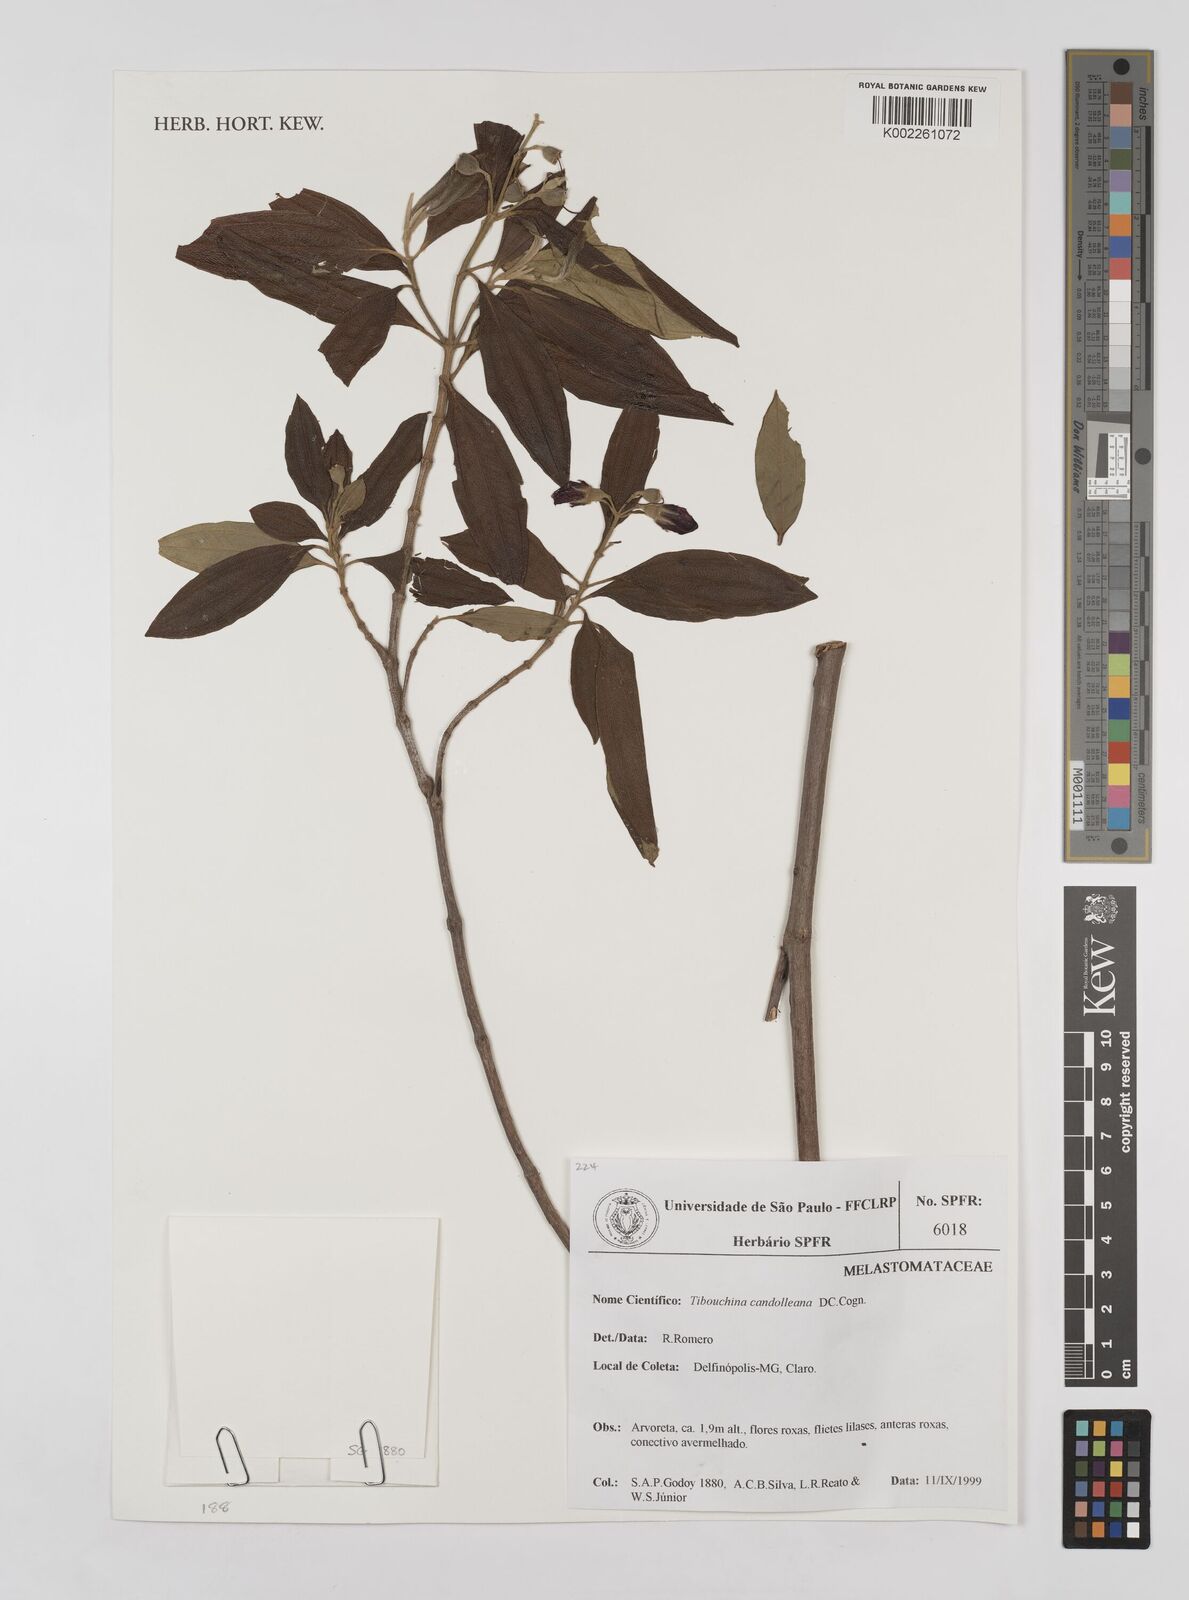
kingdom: Plantae
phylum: Tracheophyta
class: Magnoliopsida
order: Myrtales
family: Melastomataceae
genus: Pleroma
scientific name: Pleroma candolleanum
